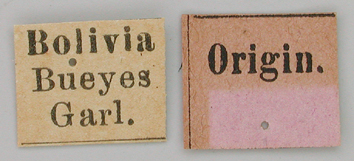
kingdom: Animalia
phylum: Arthropoda
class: Insecta
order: Lepidoptera
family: Papilionidae
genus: Papilio
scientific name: Papilio lamarchei
